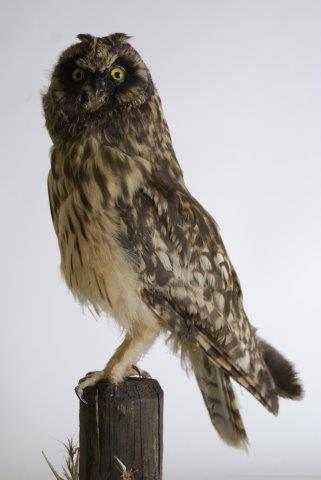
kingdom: Animalia
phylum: Chordata
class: Aves
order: Strigiformes
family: Strigidae
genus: Asio
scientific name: Asio flammeus
